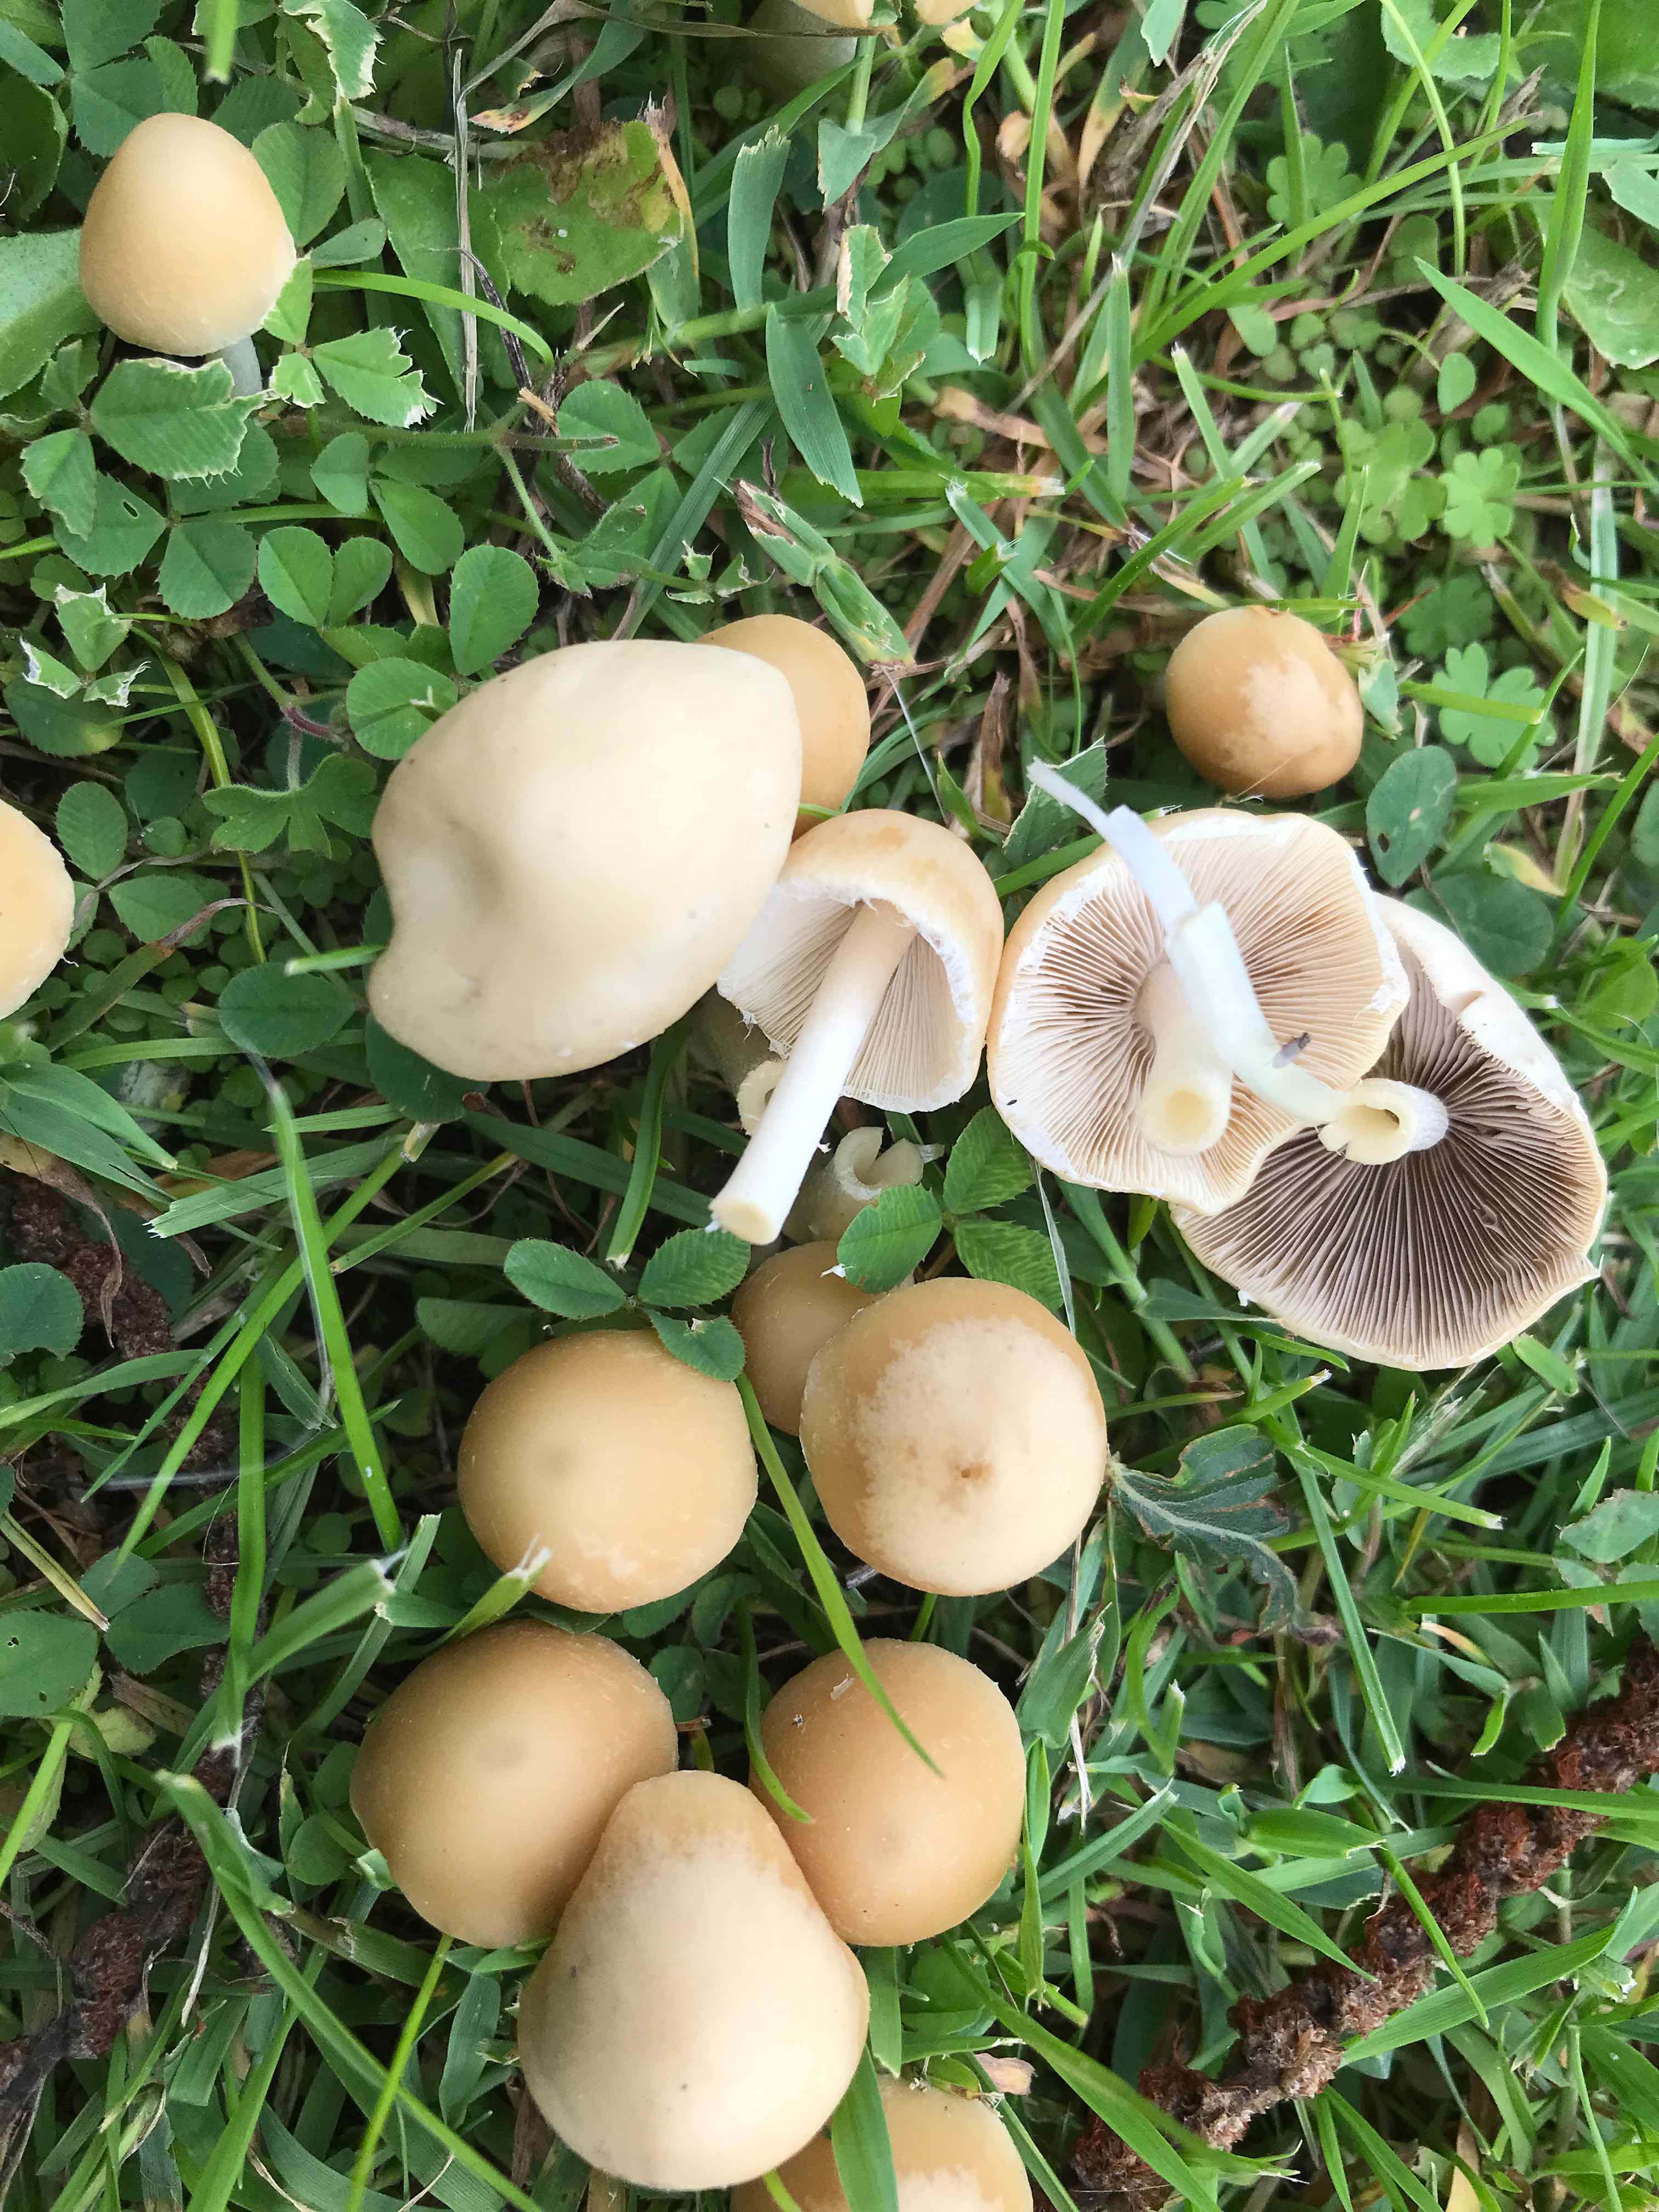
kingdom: Fungi
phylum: Basidiomycota
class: Agaricomycetes
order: Agaricales
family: Psathyrellaceae
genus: Candolleomyces
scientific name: Candolleomyces candolleanus
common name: Candolles mørkhat
